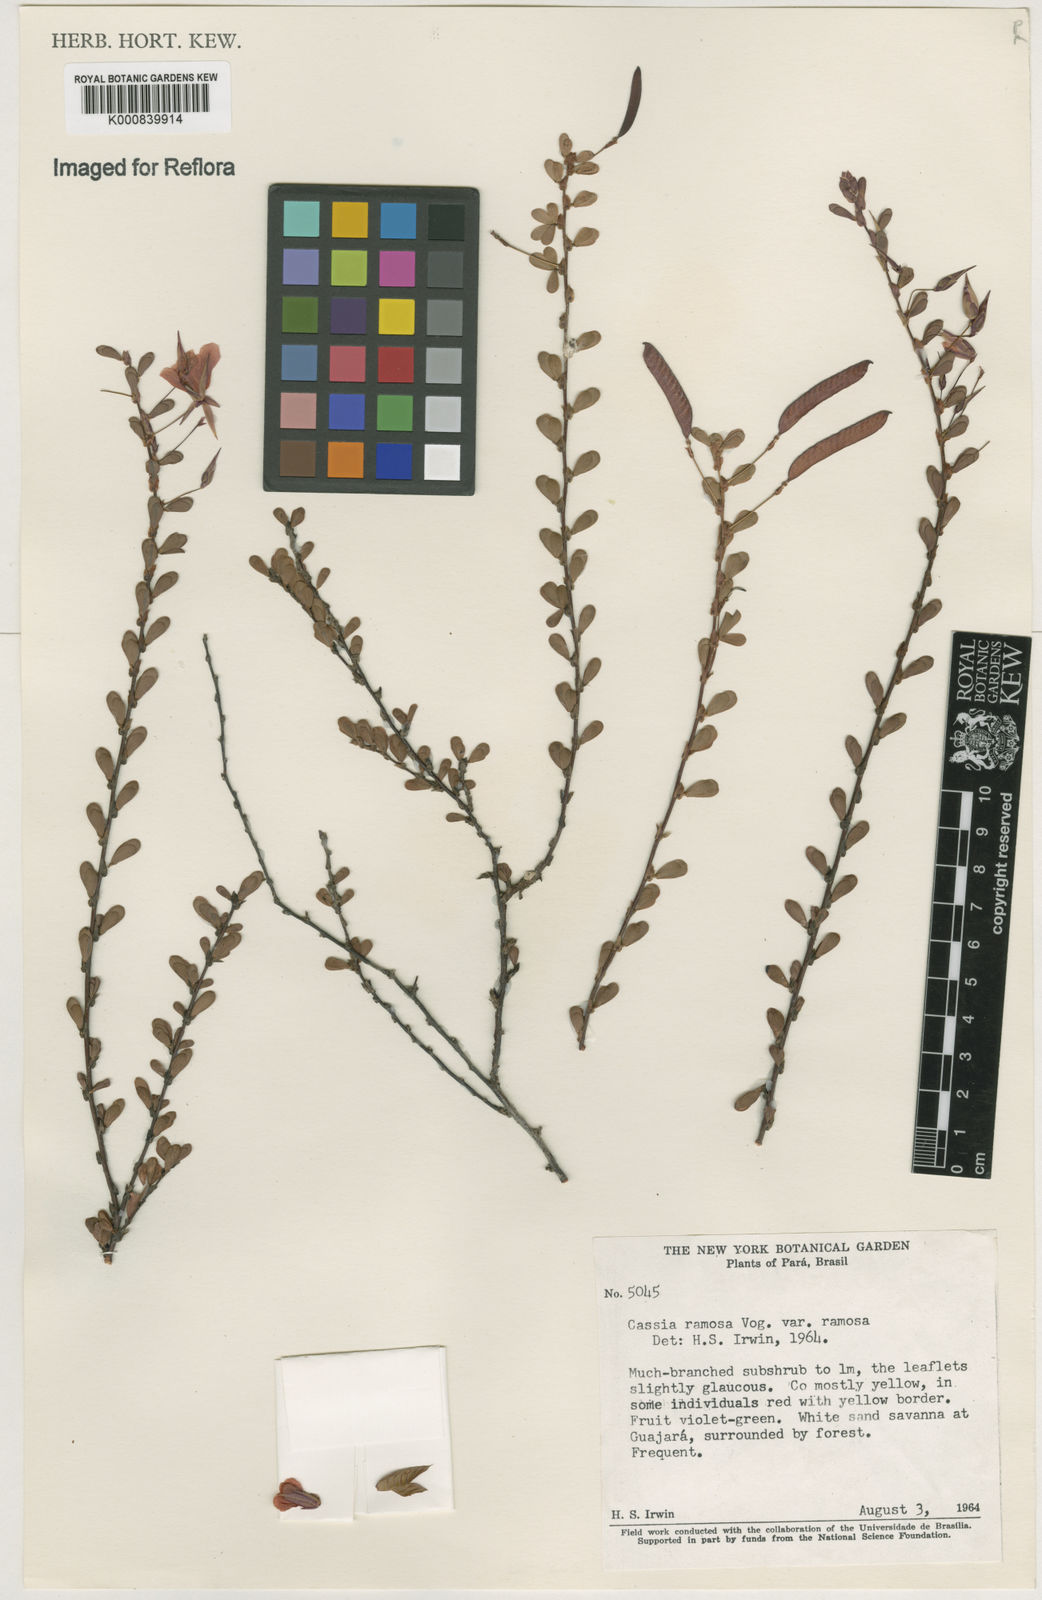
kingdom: Plantae
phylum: Tracheophyta
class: Magnoliopsida
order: Fabales
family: Fabaceae
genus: Chamaecrista
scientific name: Chamaecrista ramosa
